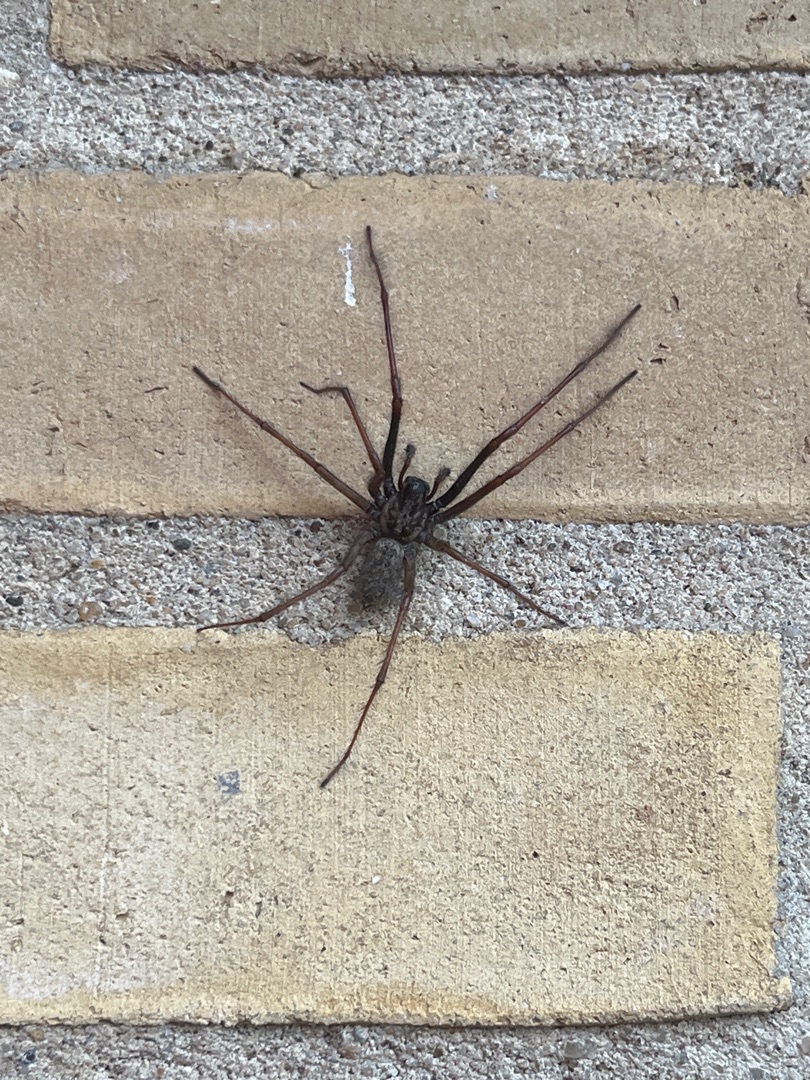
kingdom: Animalia
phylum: Arthropoda
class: Arachnida
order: Araneae
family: Agelenidae
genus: Eratigena
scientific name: Eratigena atrica
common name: Stor husedderkop
